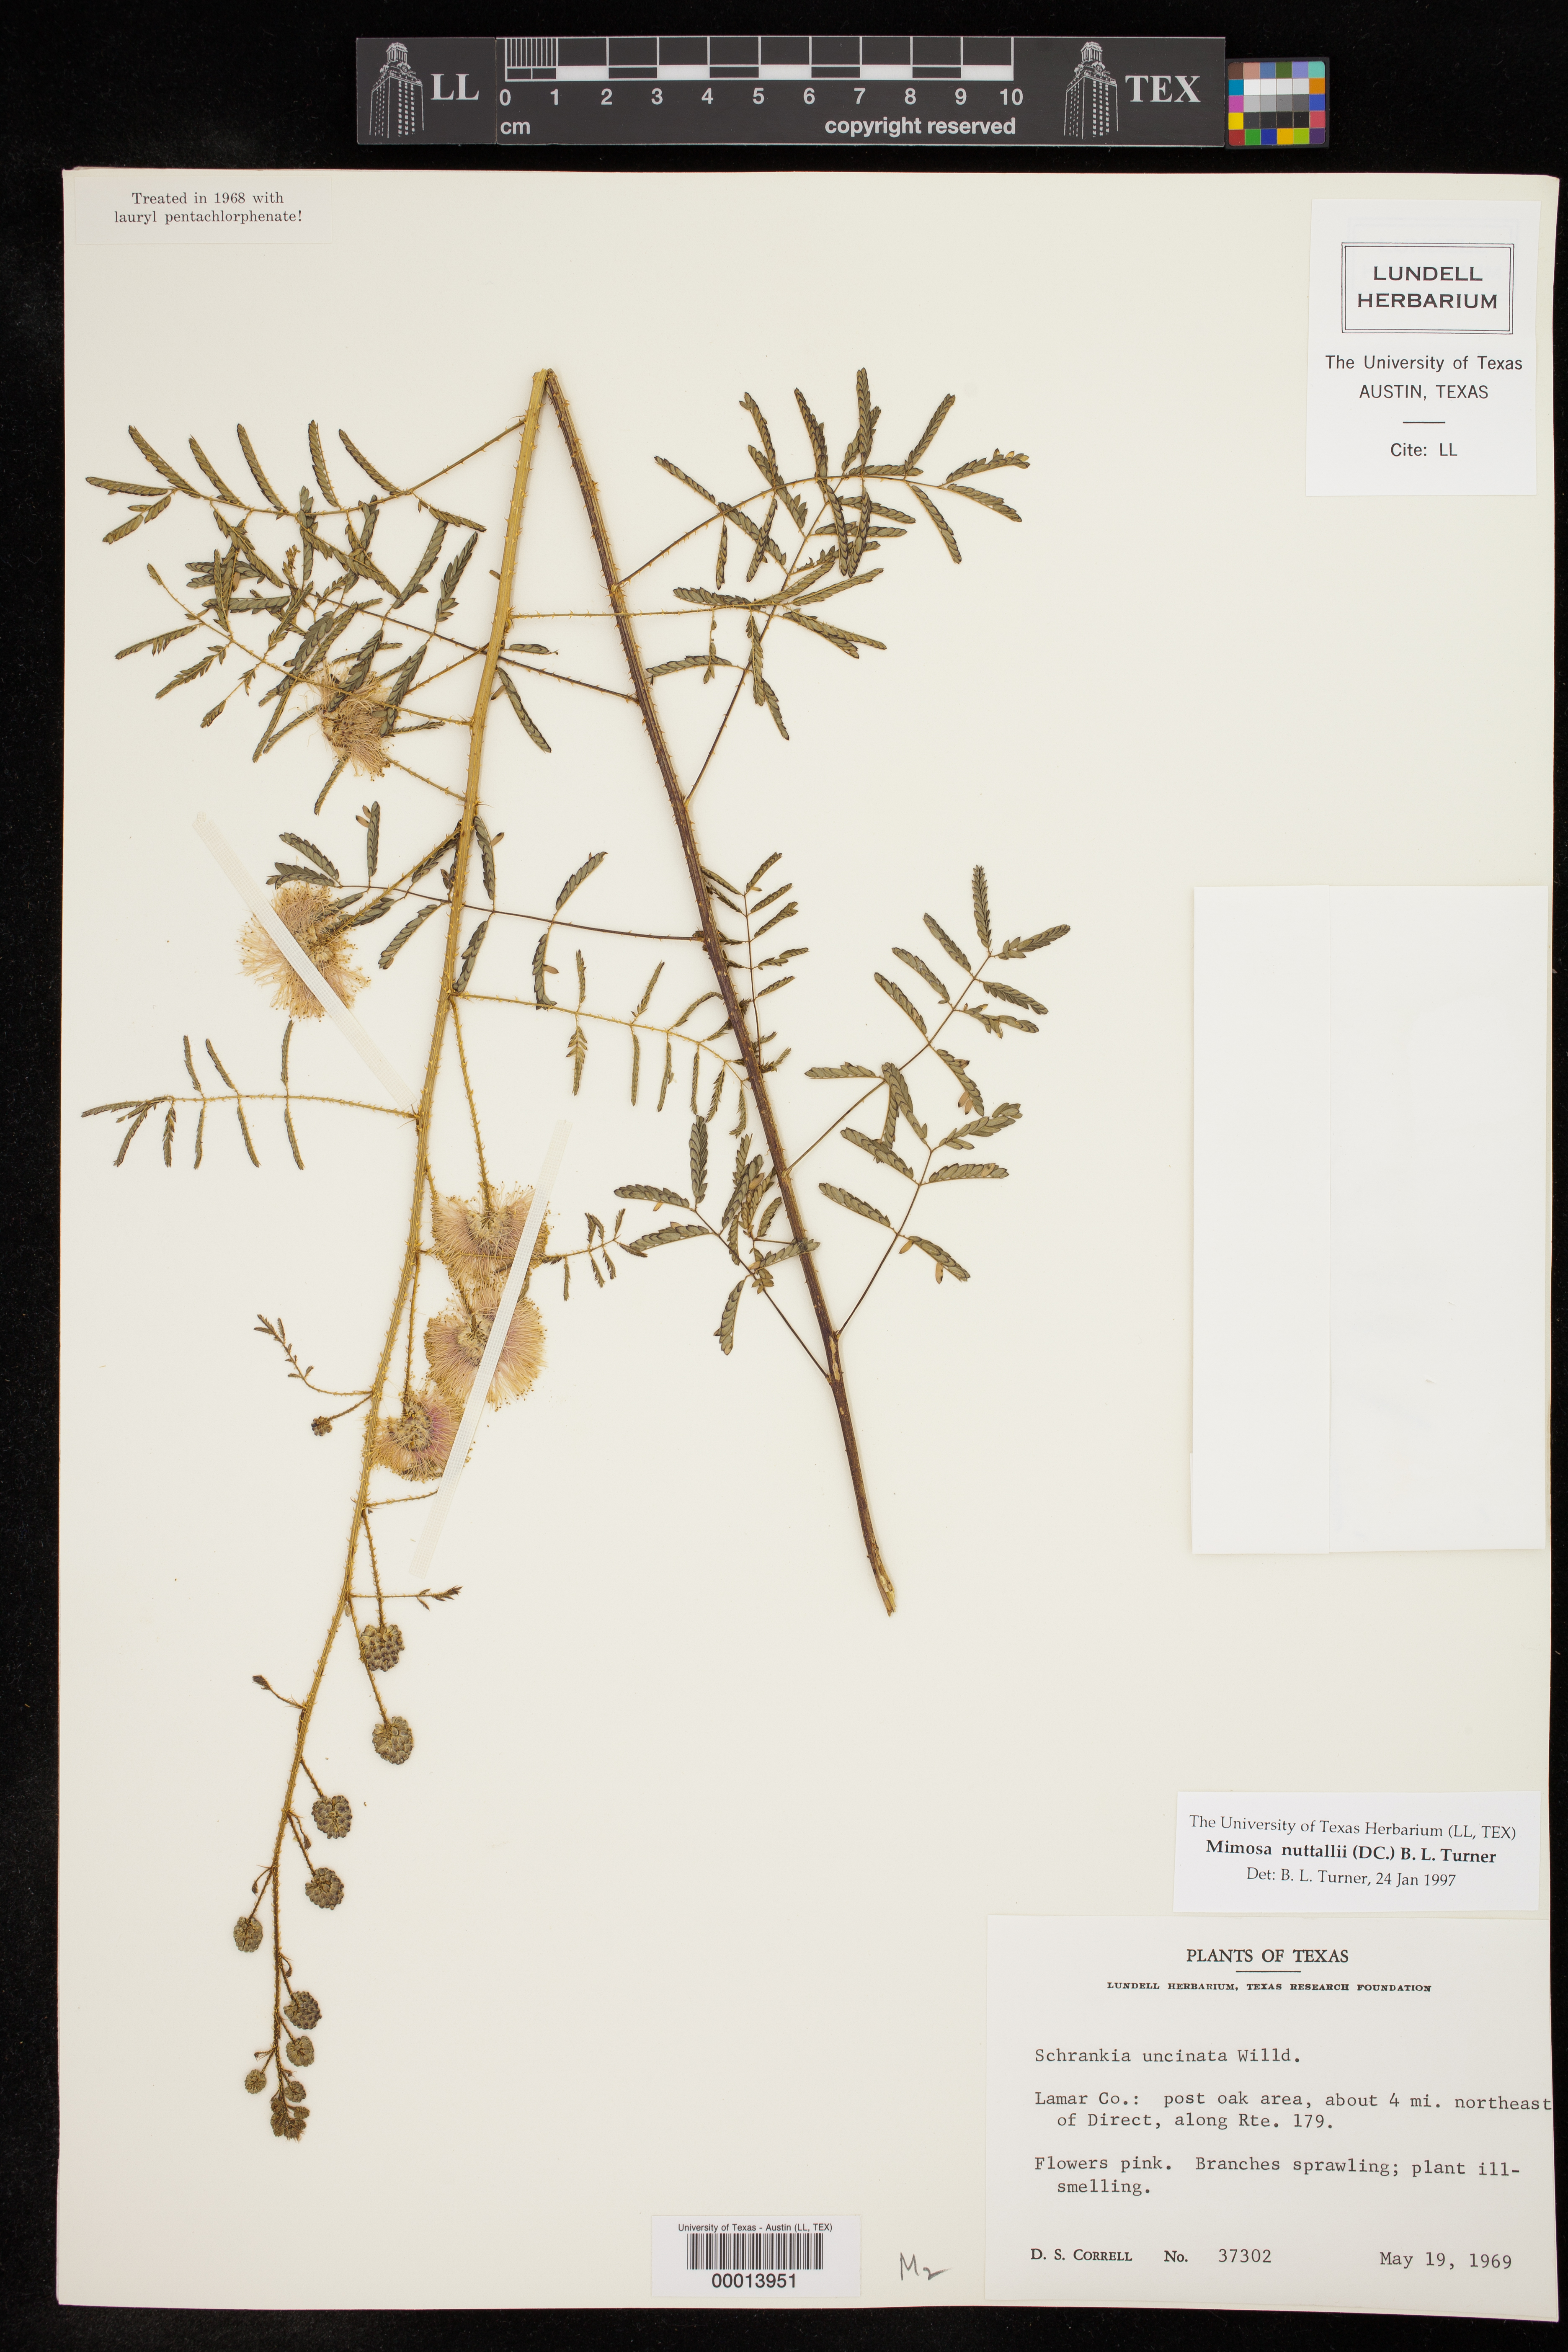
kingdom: Plantae
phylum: Tracheophyta
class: Magnoliopsida
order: Fabales
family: Fabaceae
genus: Mimosa
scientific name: Mimosa quadrivalvis
